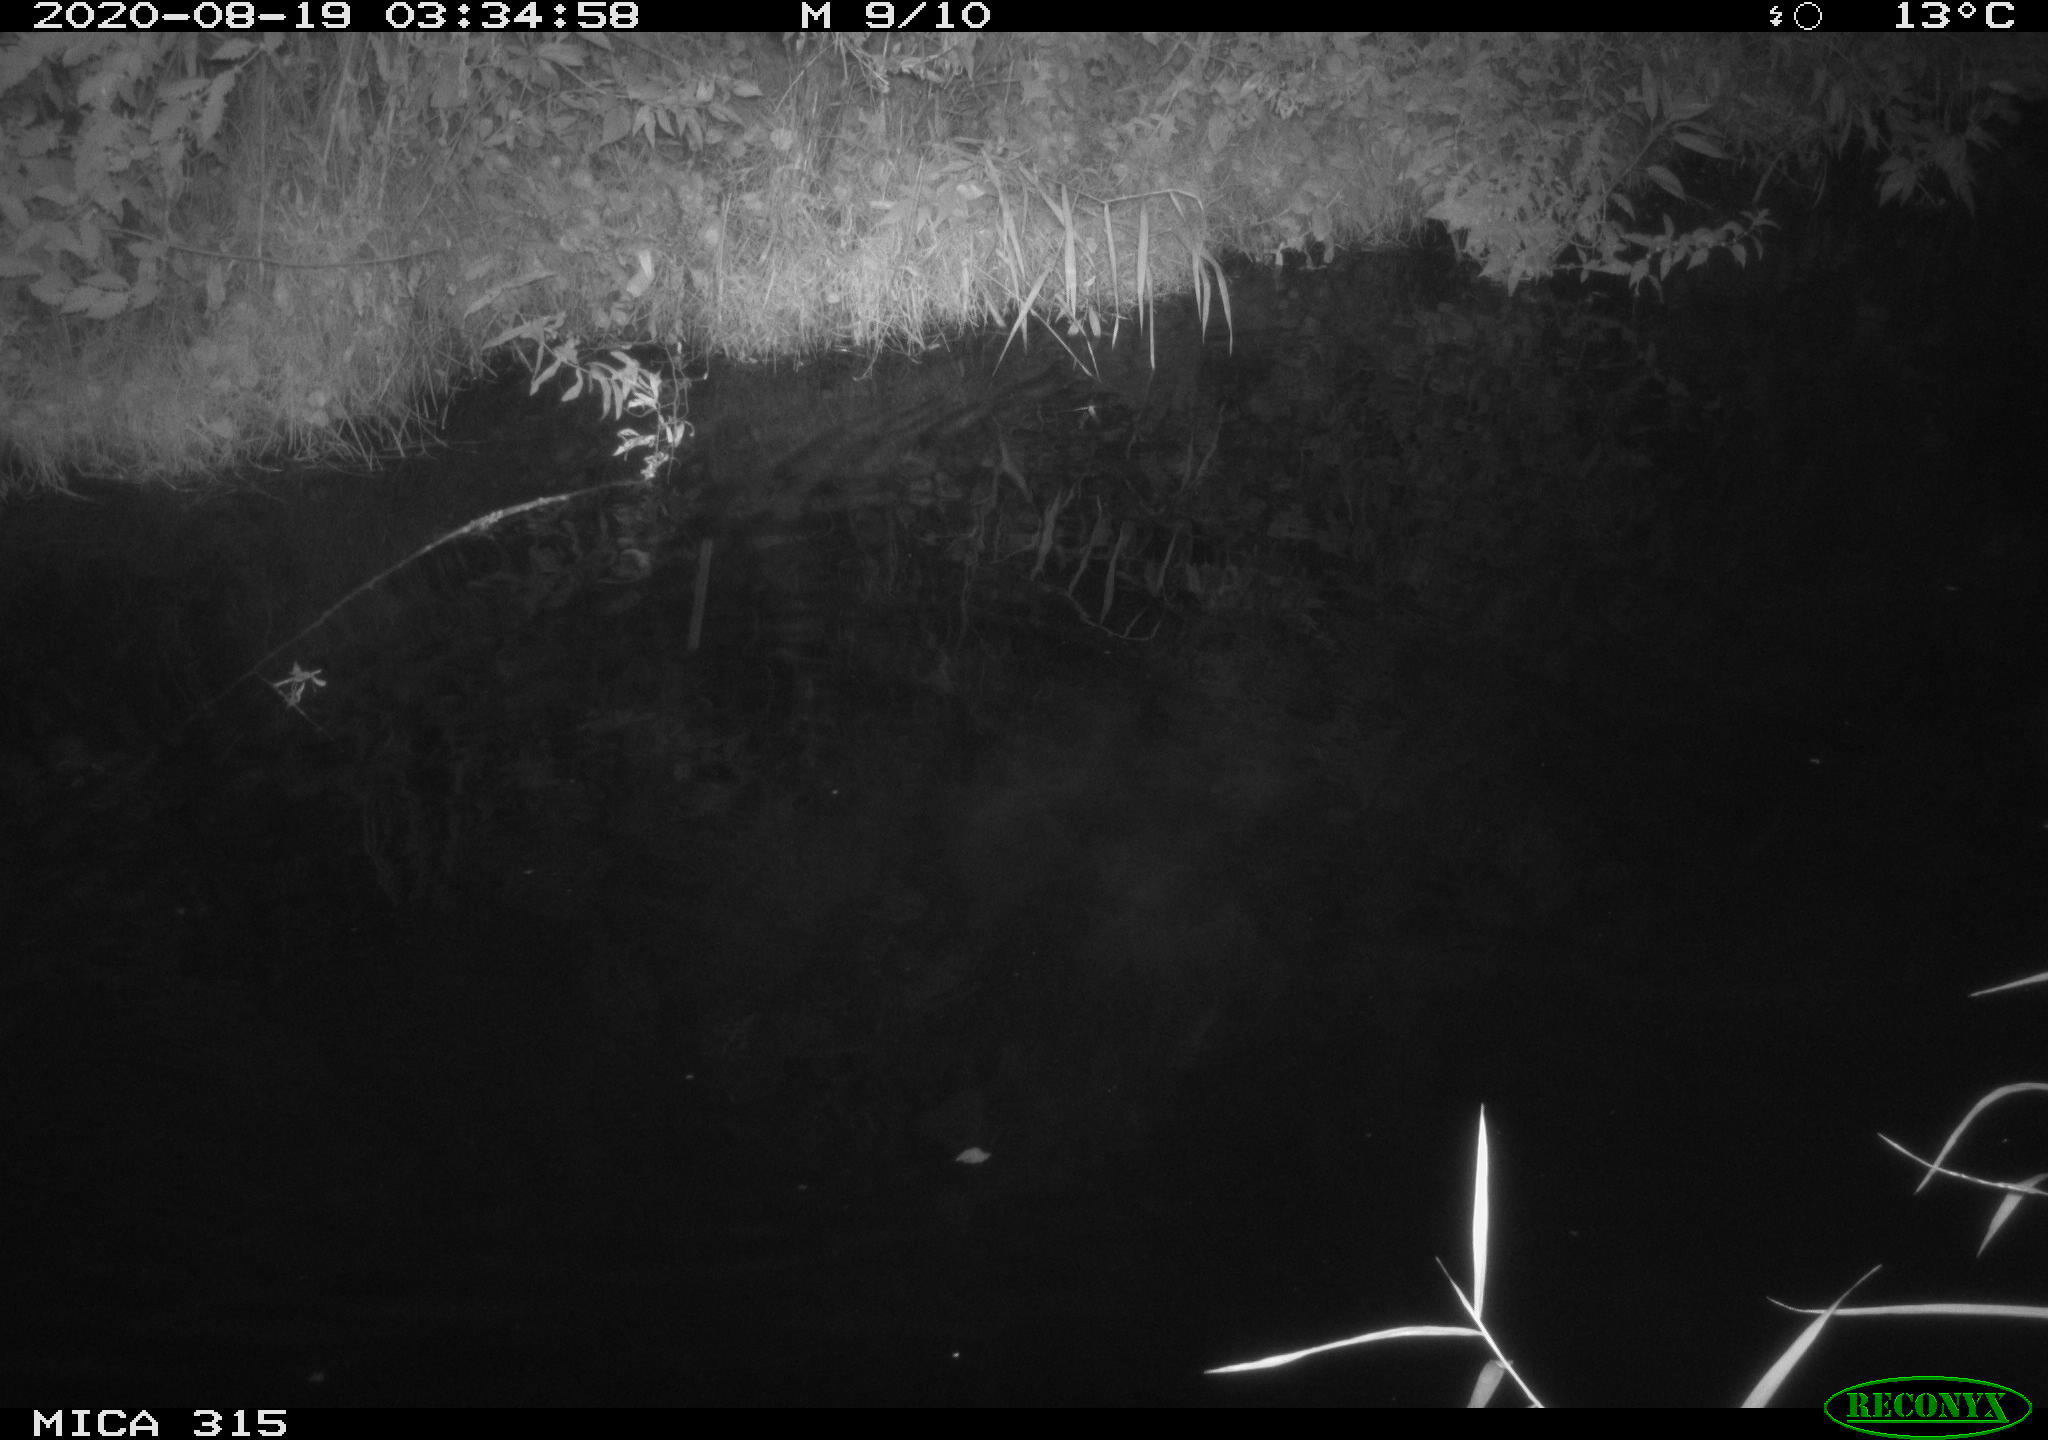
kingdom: Animalia
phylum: Chordata
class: Aves
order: Anseriformes
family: Anatidae
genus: Anas
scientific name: Anas platyrhynchos
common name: Mallard
